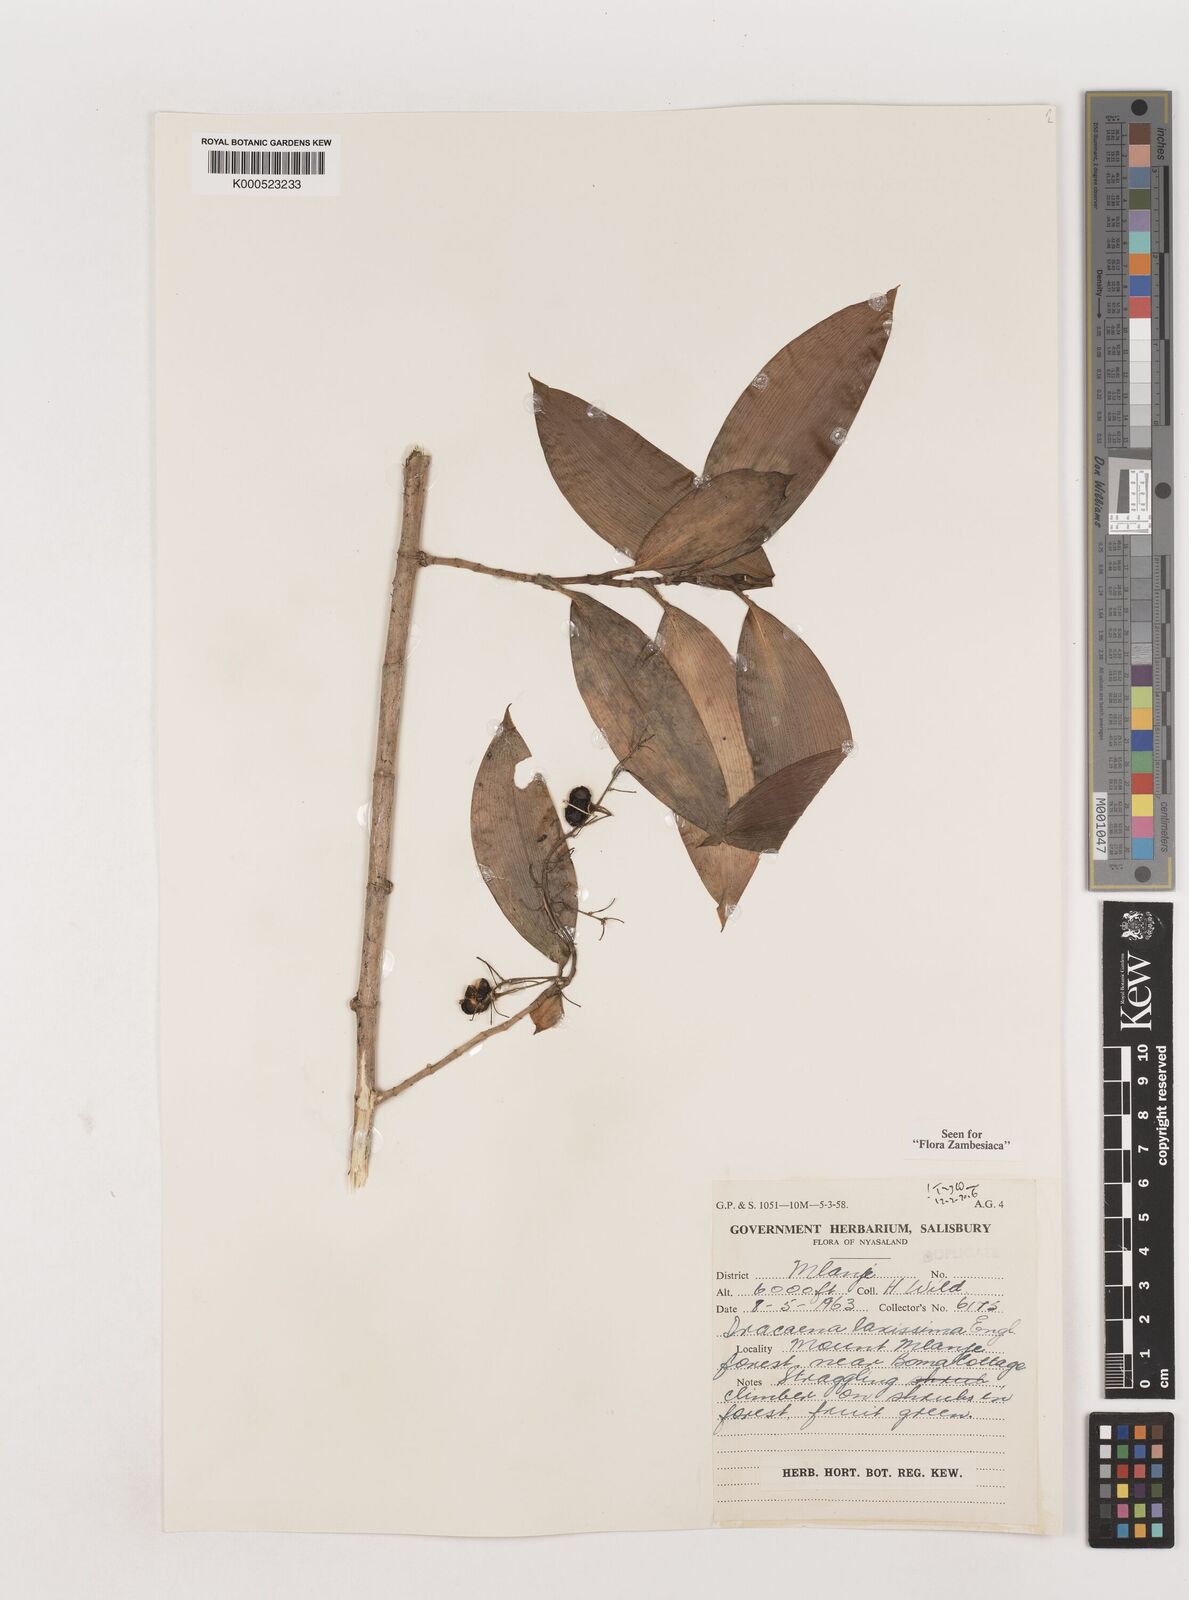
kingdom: Plantae
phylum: Tracheophyta
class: Liliopsida
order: Asparagales
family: Asparagaceae
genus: Dracaena
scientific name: Dracaena laxissima
